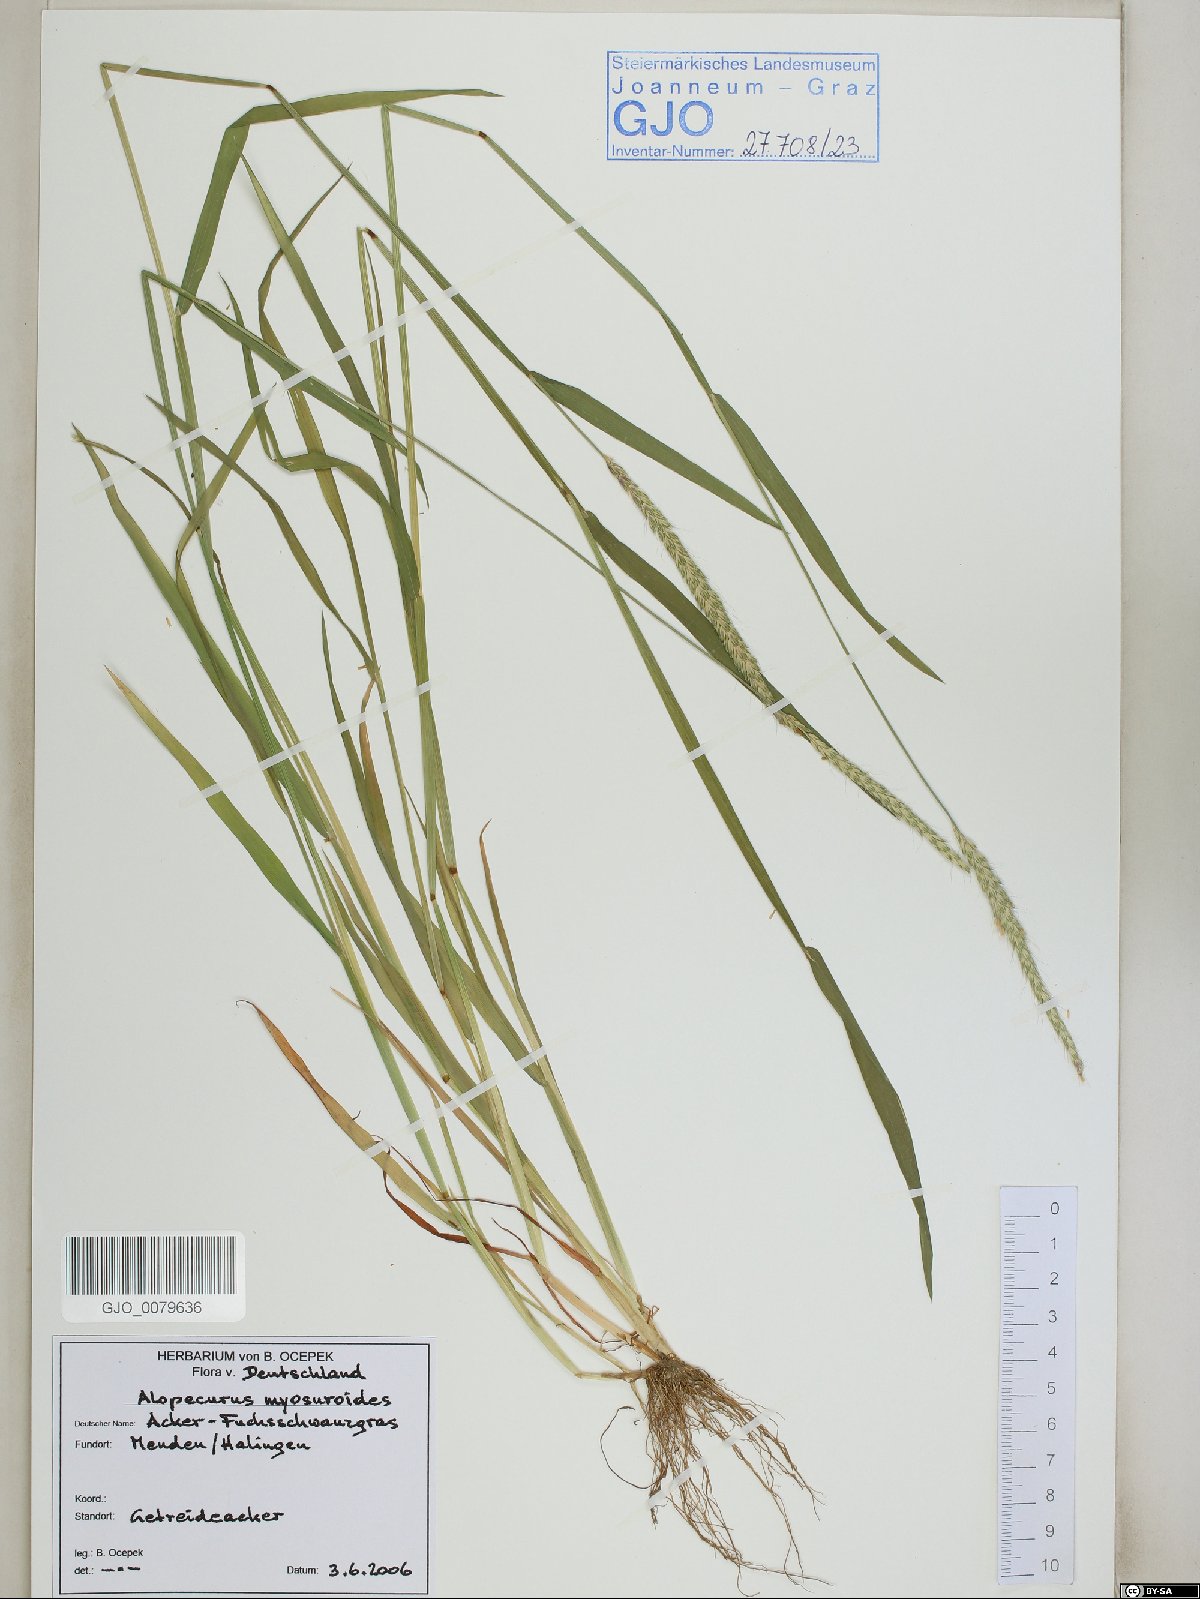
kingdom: Plantae
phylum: Tracheophyta
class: Liliopsida
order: Poales
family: Poaceae
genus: Alopecurus
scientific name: Alopecurus myosuroides
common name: Black-grass
